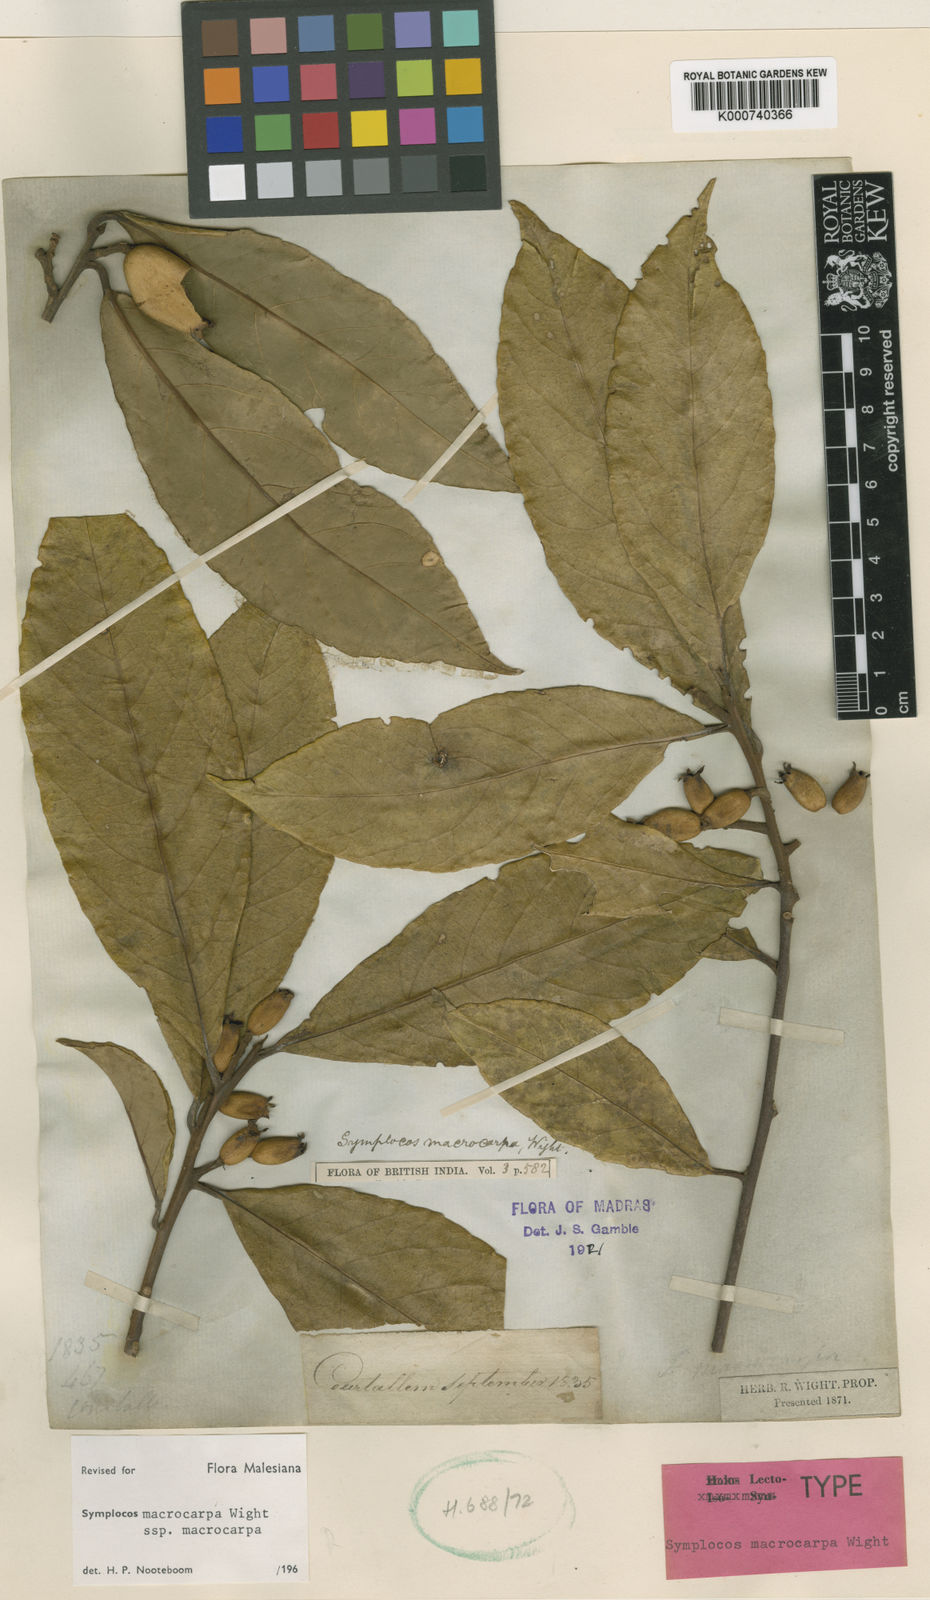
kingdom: Plantae
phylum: Tracheophyta
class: Magnoliopsida
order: Ericales
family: Symplocaceae
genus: Symplocos
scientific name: Symplocos macrocarpa
